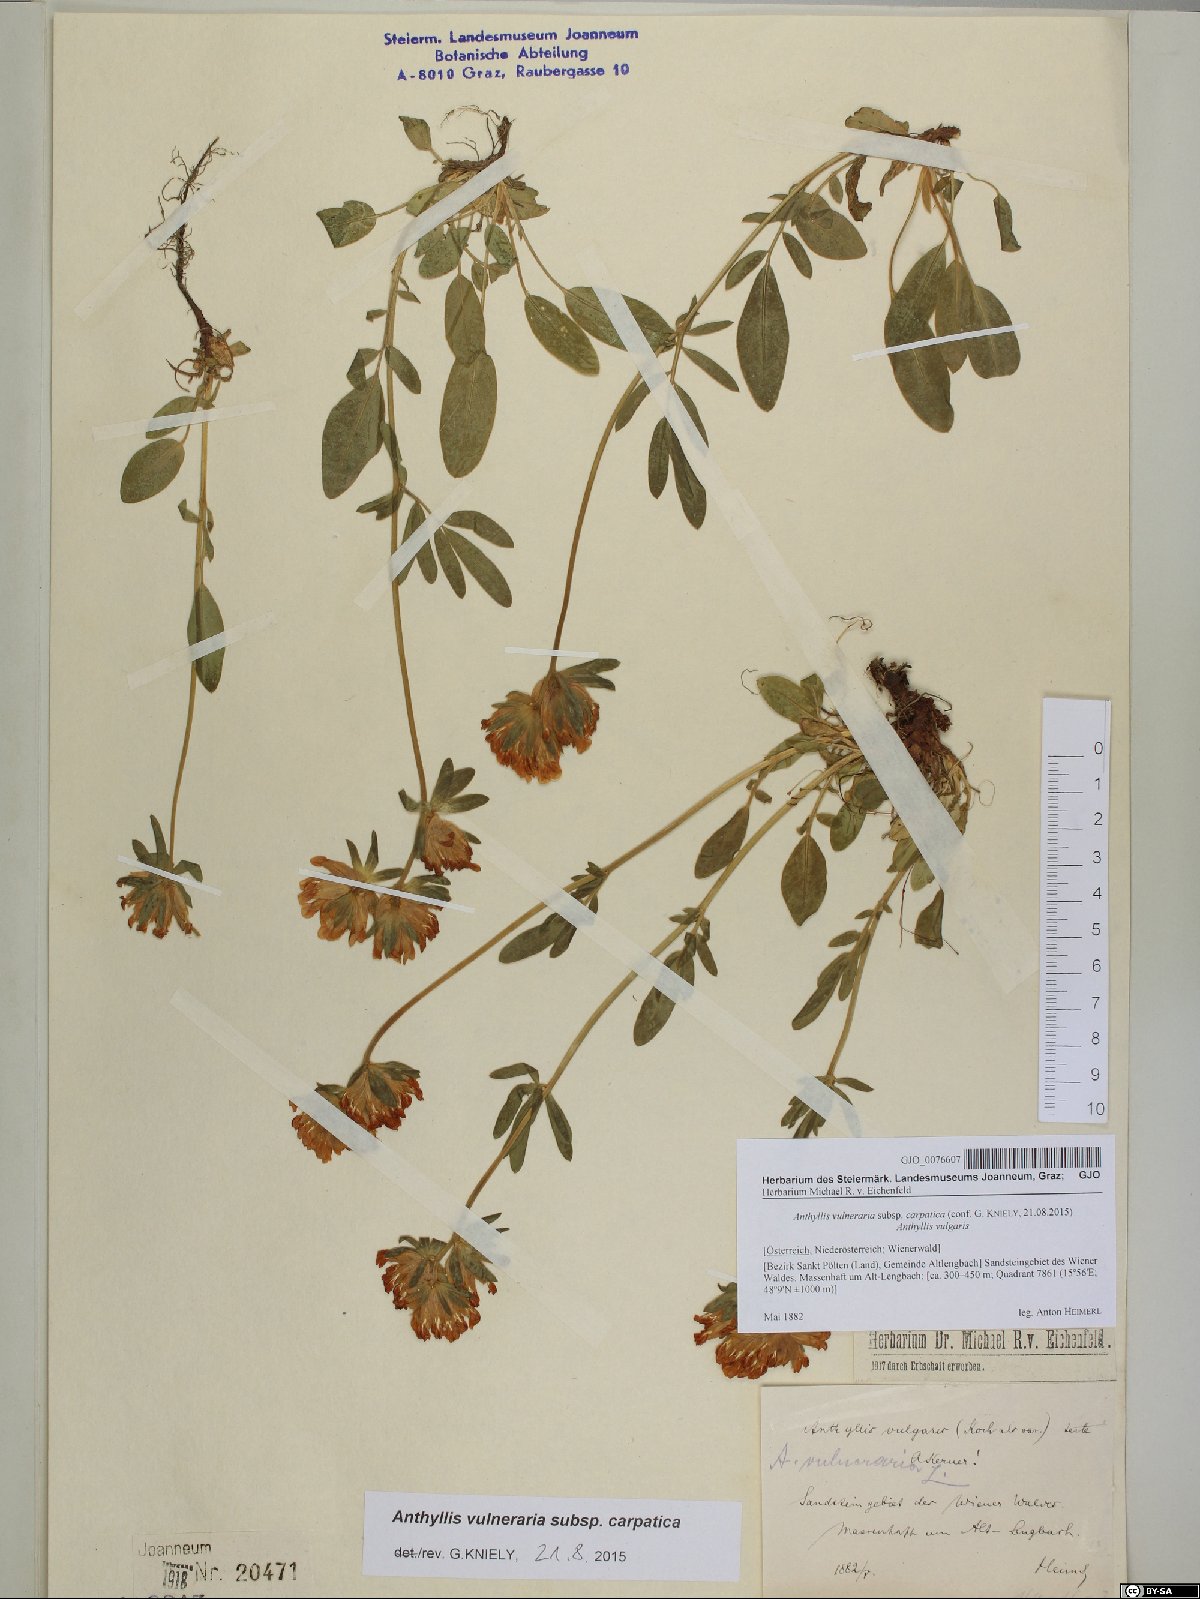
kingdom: Plantae
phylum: Tracheophyta
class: Magnoliopsida
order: Fabales
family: Fabaceae
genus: Anthyllis
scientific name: Anthyllis vulneraria
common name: Kidney vetch
